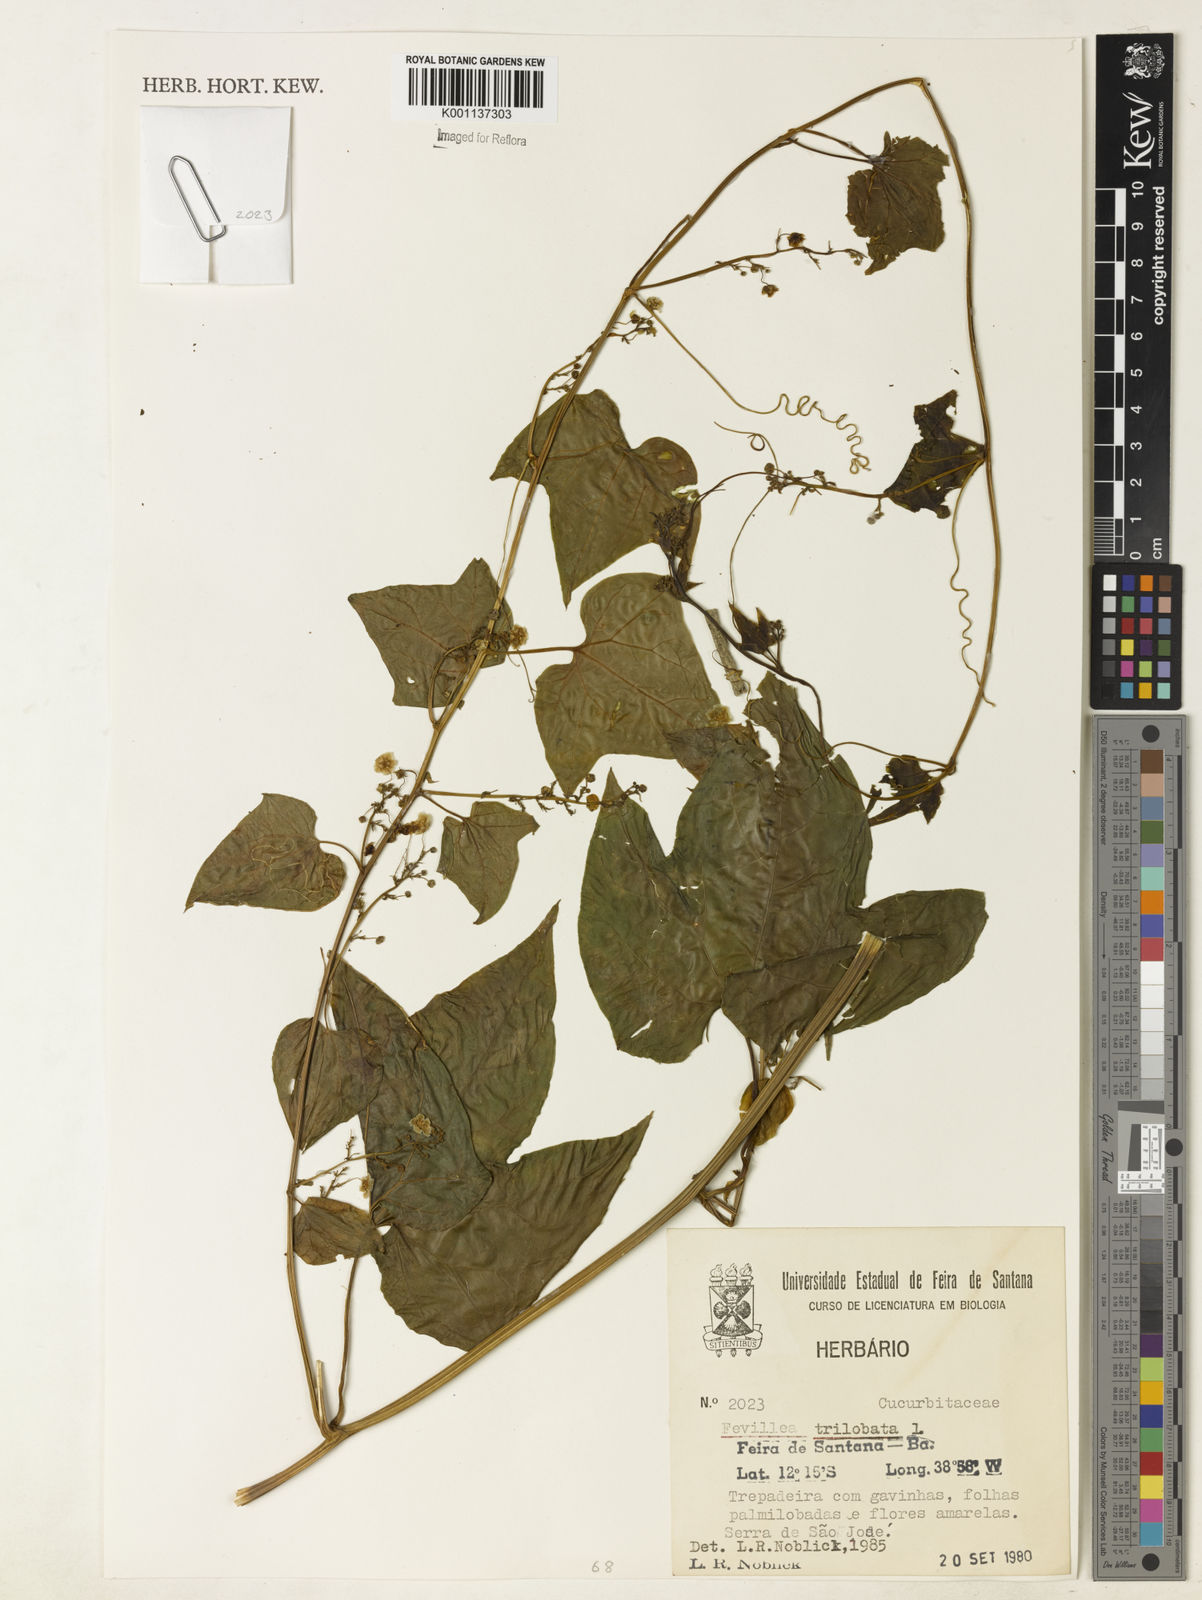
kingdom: Plantae
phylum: Tracheophyta
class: Magnoliopsida
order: Cucurbitales
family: Cucurbitaceae
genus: Fevillea
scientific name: Fevillea trilobata
